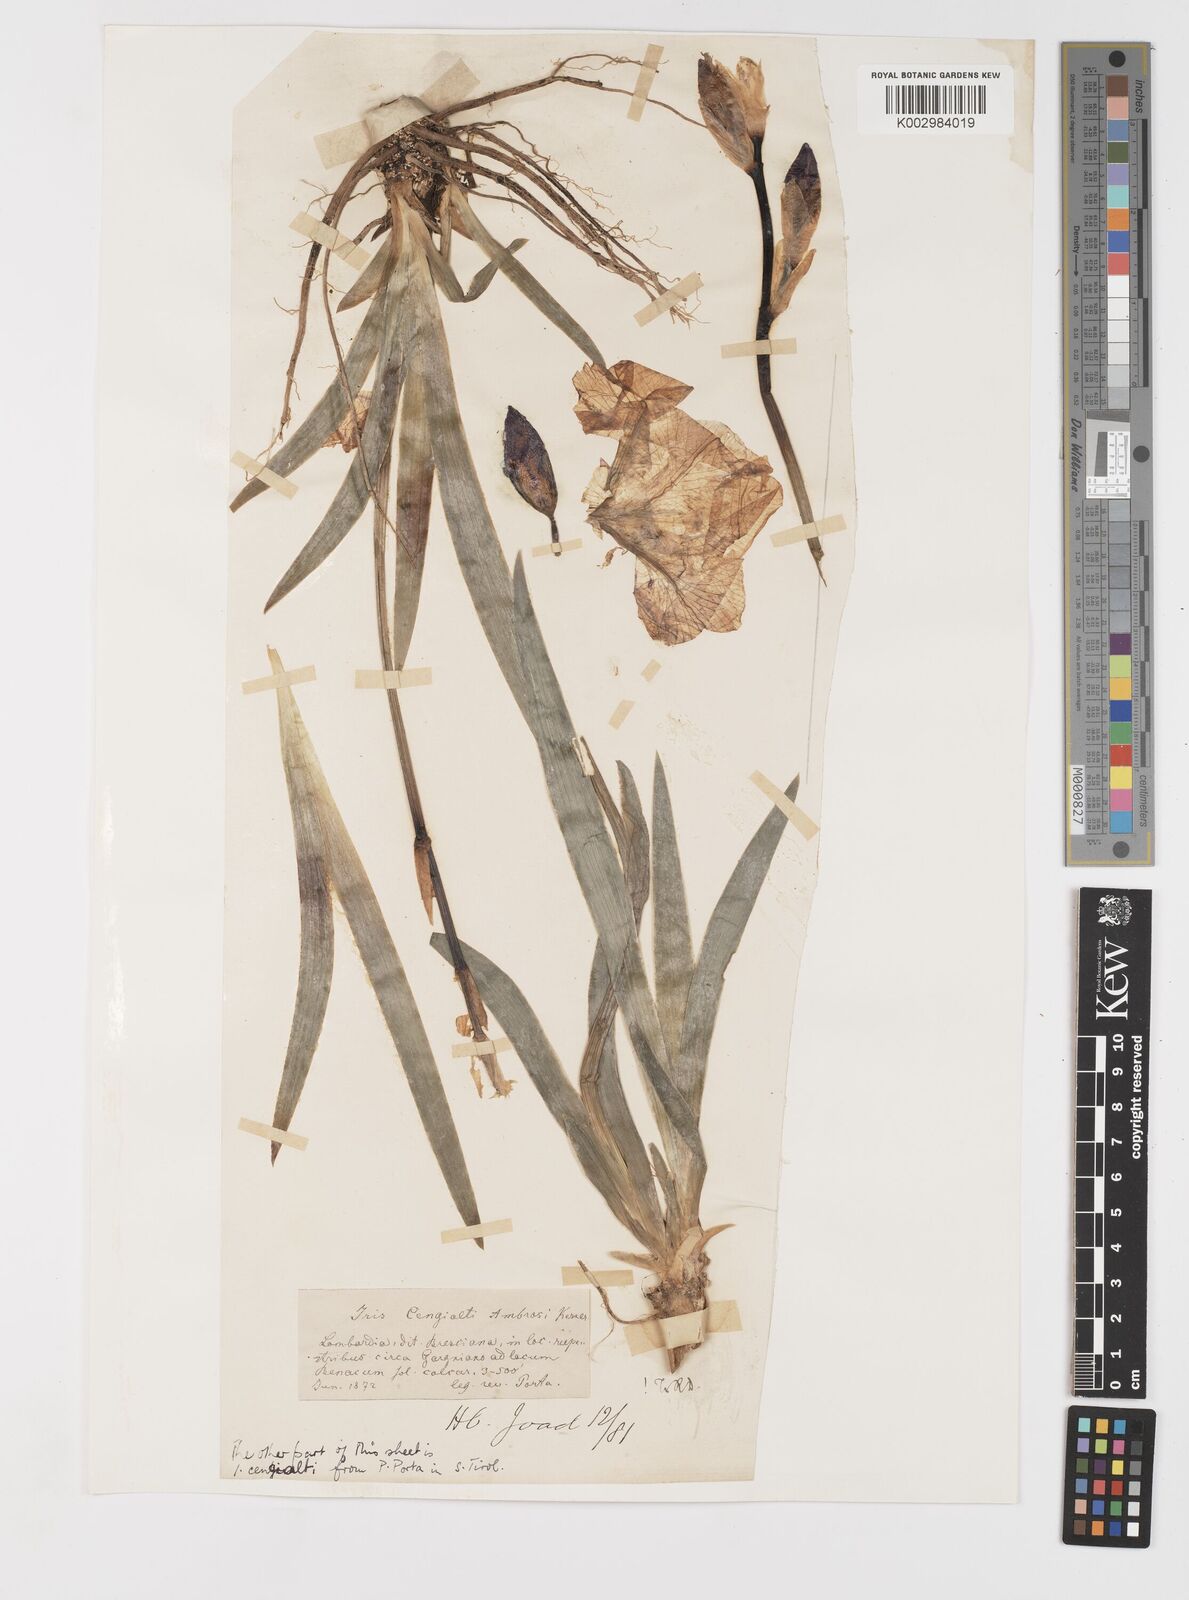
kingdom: Plantae
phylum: Tracheophyta
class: Liliopsida
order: Asparagales
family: Iridaceae
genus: Iris
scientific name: Iris pallida
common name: Sweet iris
